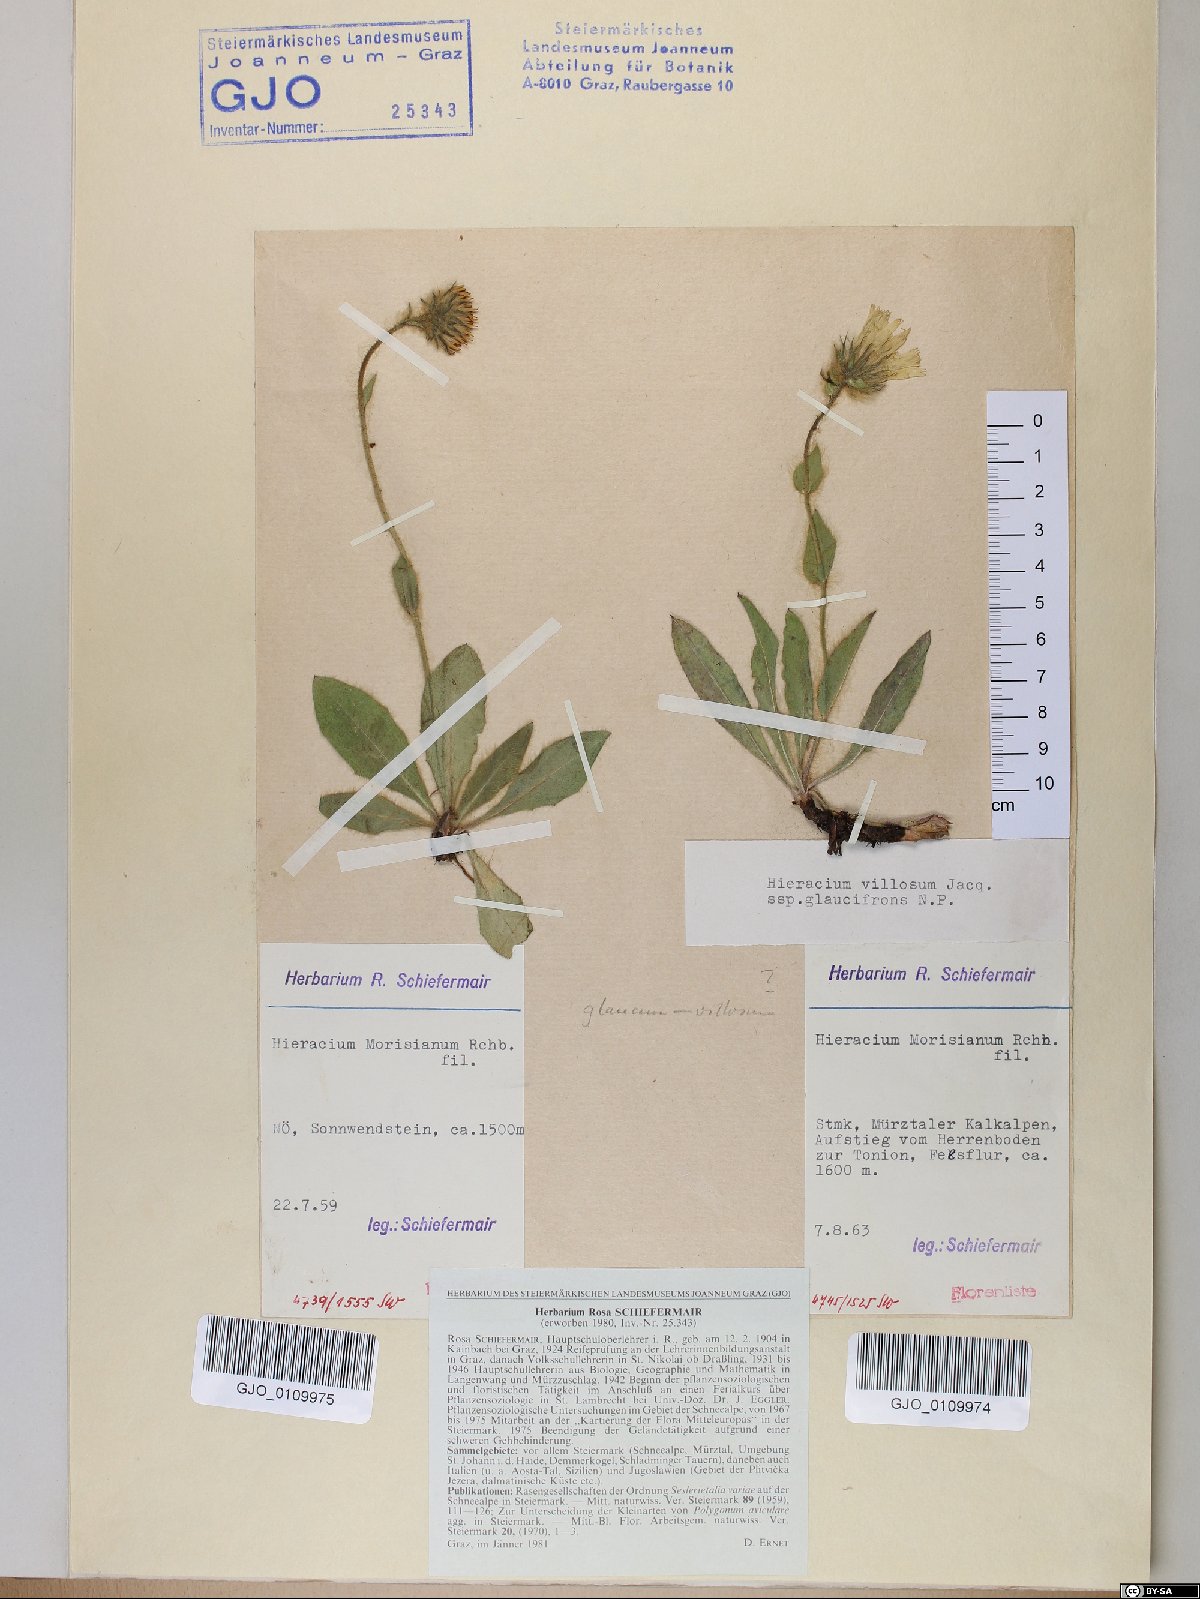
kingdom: Plantae
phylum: Tracheophyta
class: Magnoliopsida
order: Asterales
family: Asteraceae
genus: Hieracium
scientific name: Hieracium pilosum
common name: Fimbriate-pitted hawkweed
